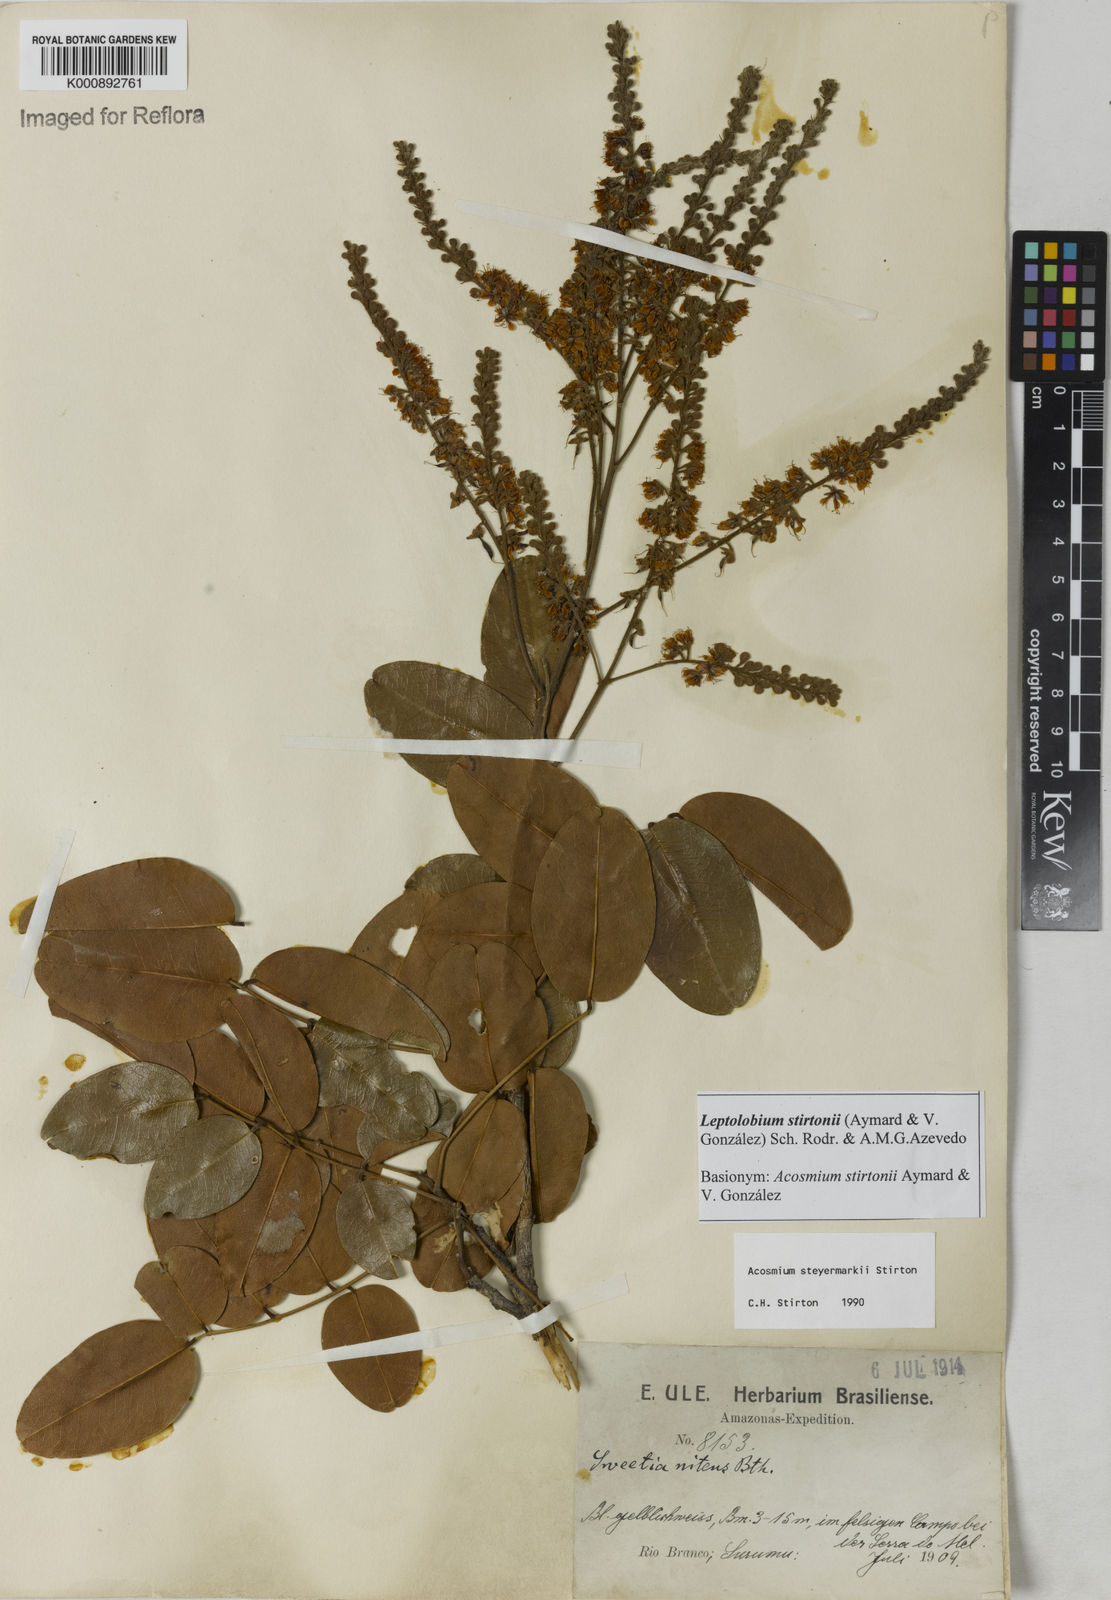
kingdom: Plantae
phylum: Tracheophyta
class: Magnoliopsida
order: Fabales
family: Fabaceae
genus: Leptolobium
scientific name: Leptolobium
